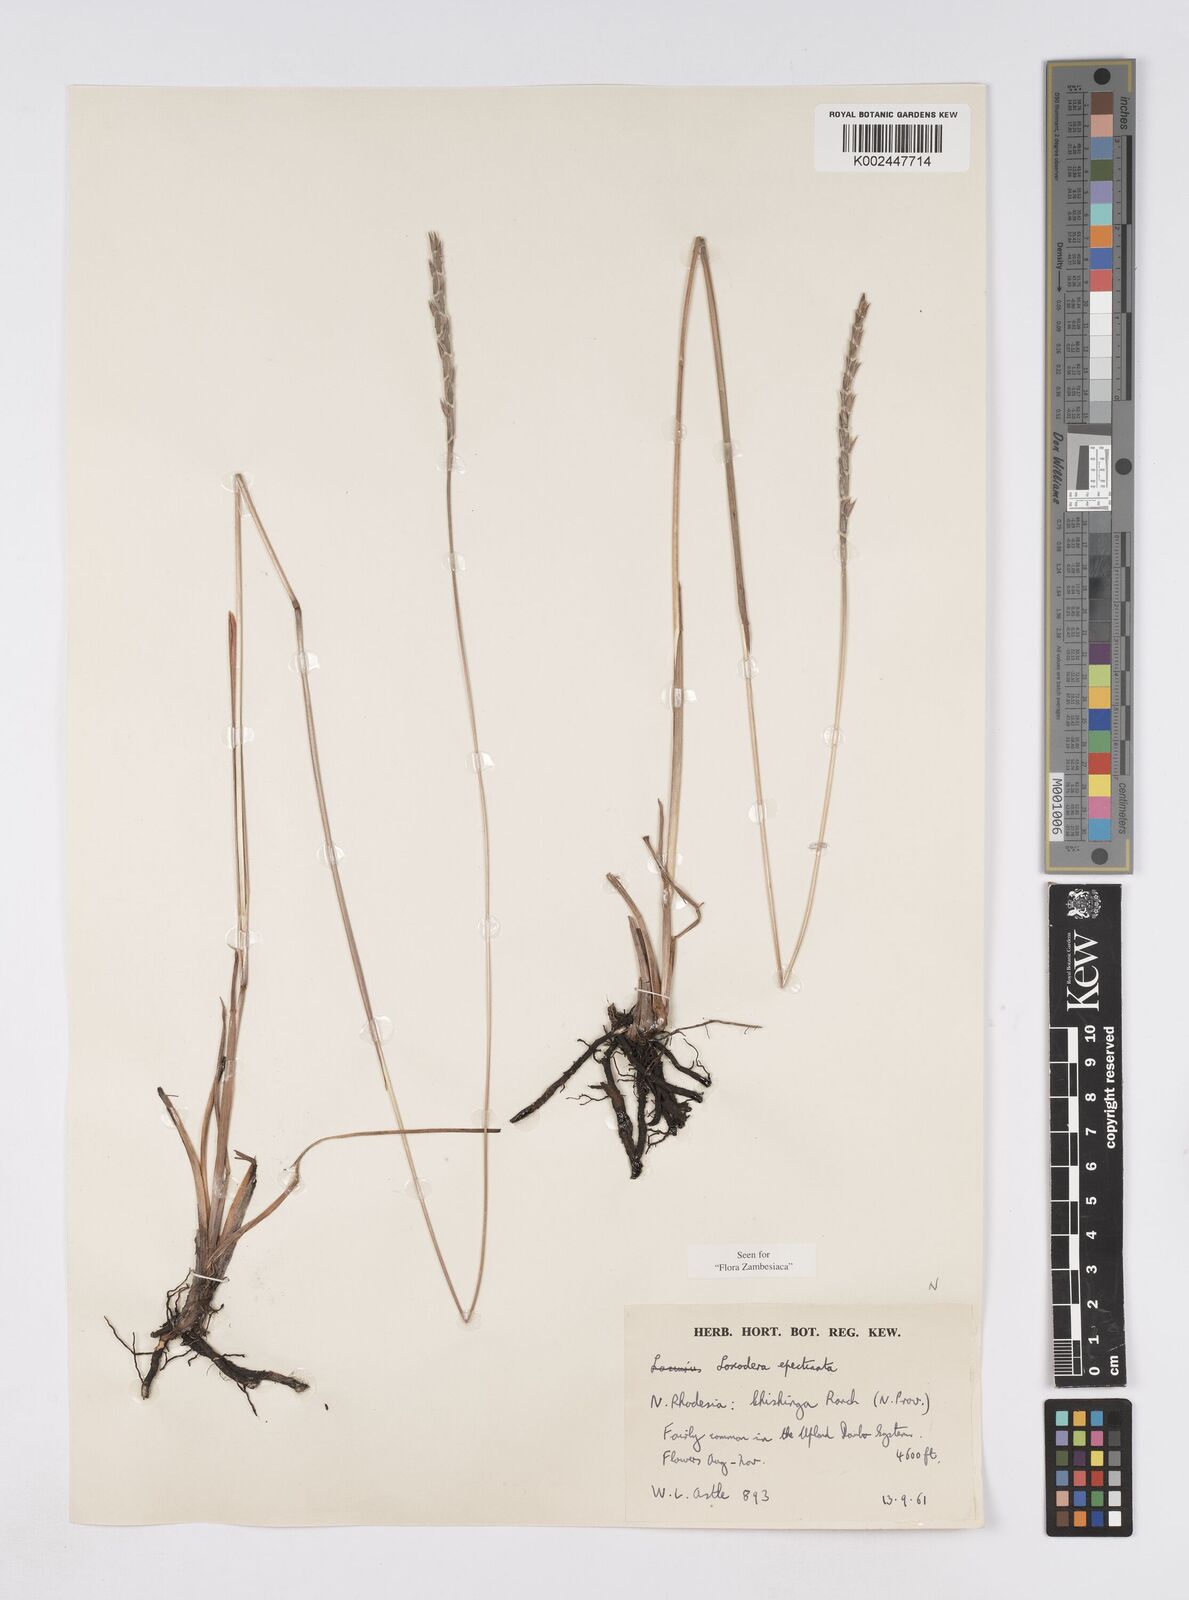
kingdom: Plantae
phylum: Tracheophyta
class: Liliopsida
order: Poales
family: Poaceae
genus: Loxodera
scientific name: Loxodera caespitosa
